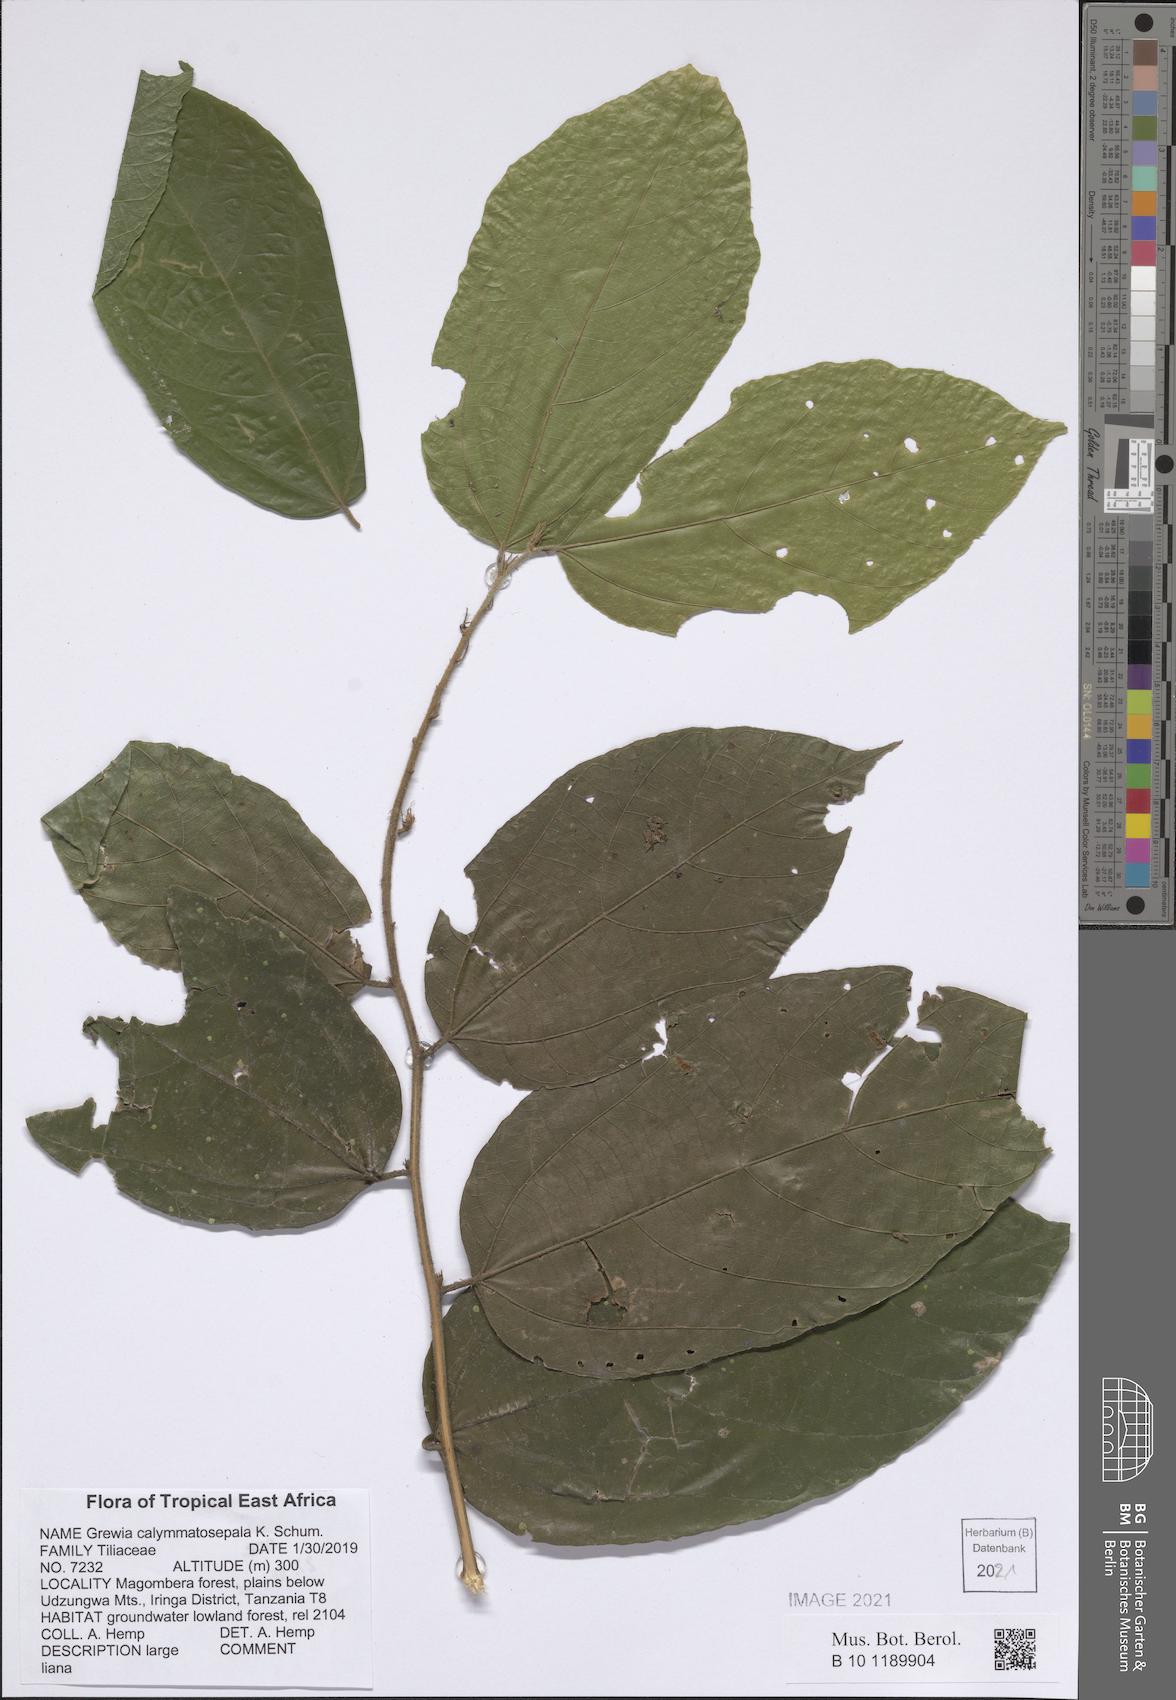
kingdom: Plantae
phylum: Tracheophyta
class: Magnoliopsida
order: Malvales
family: Malvaceae
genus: Microcos
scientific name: Microcos calymmatosepala
